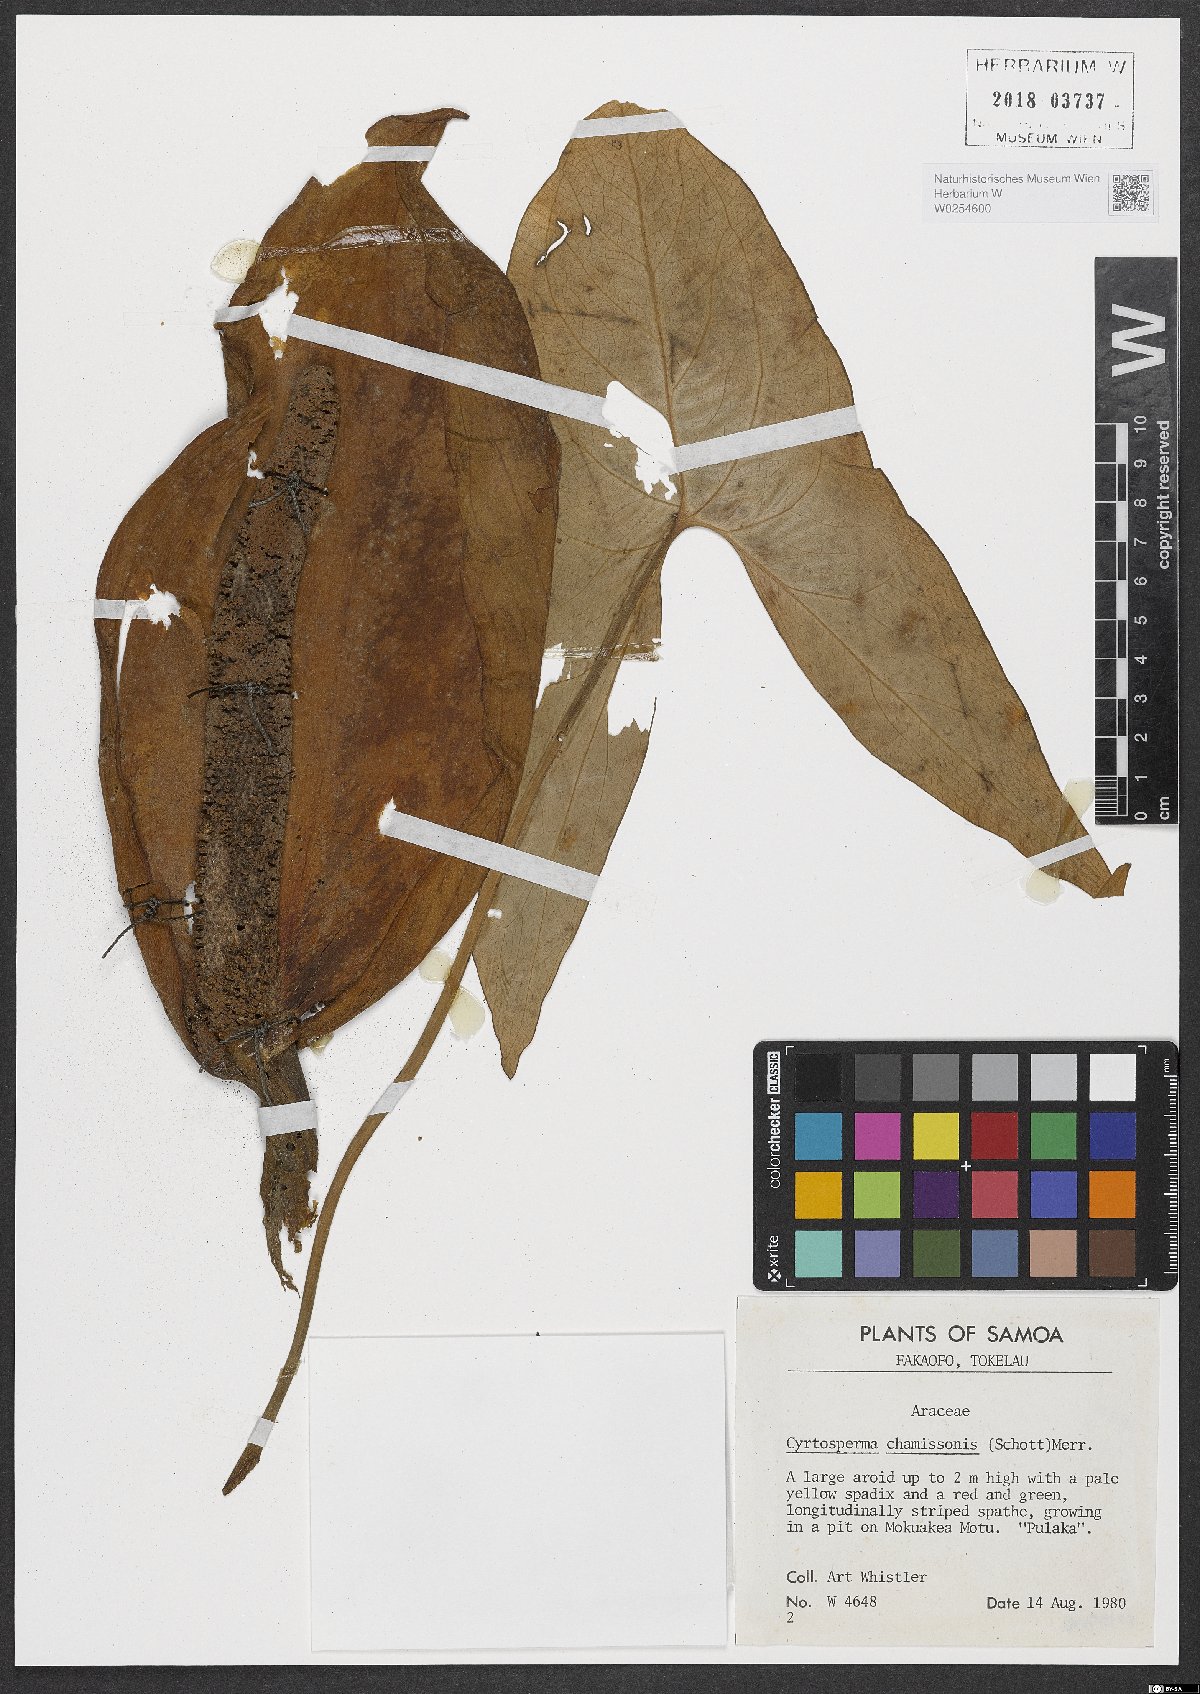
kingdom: Plantae
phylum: Tracheophyta
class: Liliopsida
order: Alismatales
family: Araceae
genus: Cyrtosperma
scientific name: Cyrtosperma merkusii
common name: Giant swamp-taro
